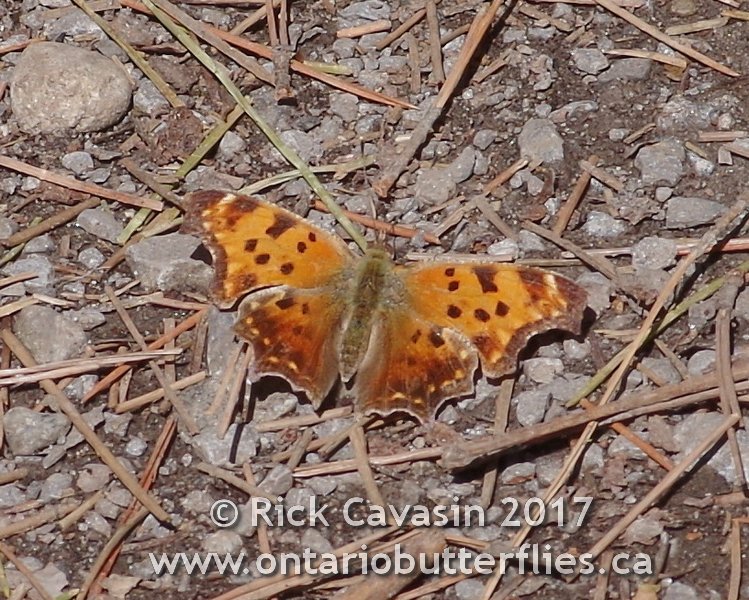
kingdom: Animalia
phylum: Arthropoda
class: Insecta
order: Lepidoptera
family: Nymphalidae
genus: Polygonia
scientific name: Polygonia comma
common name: Eastern Comma
